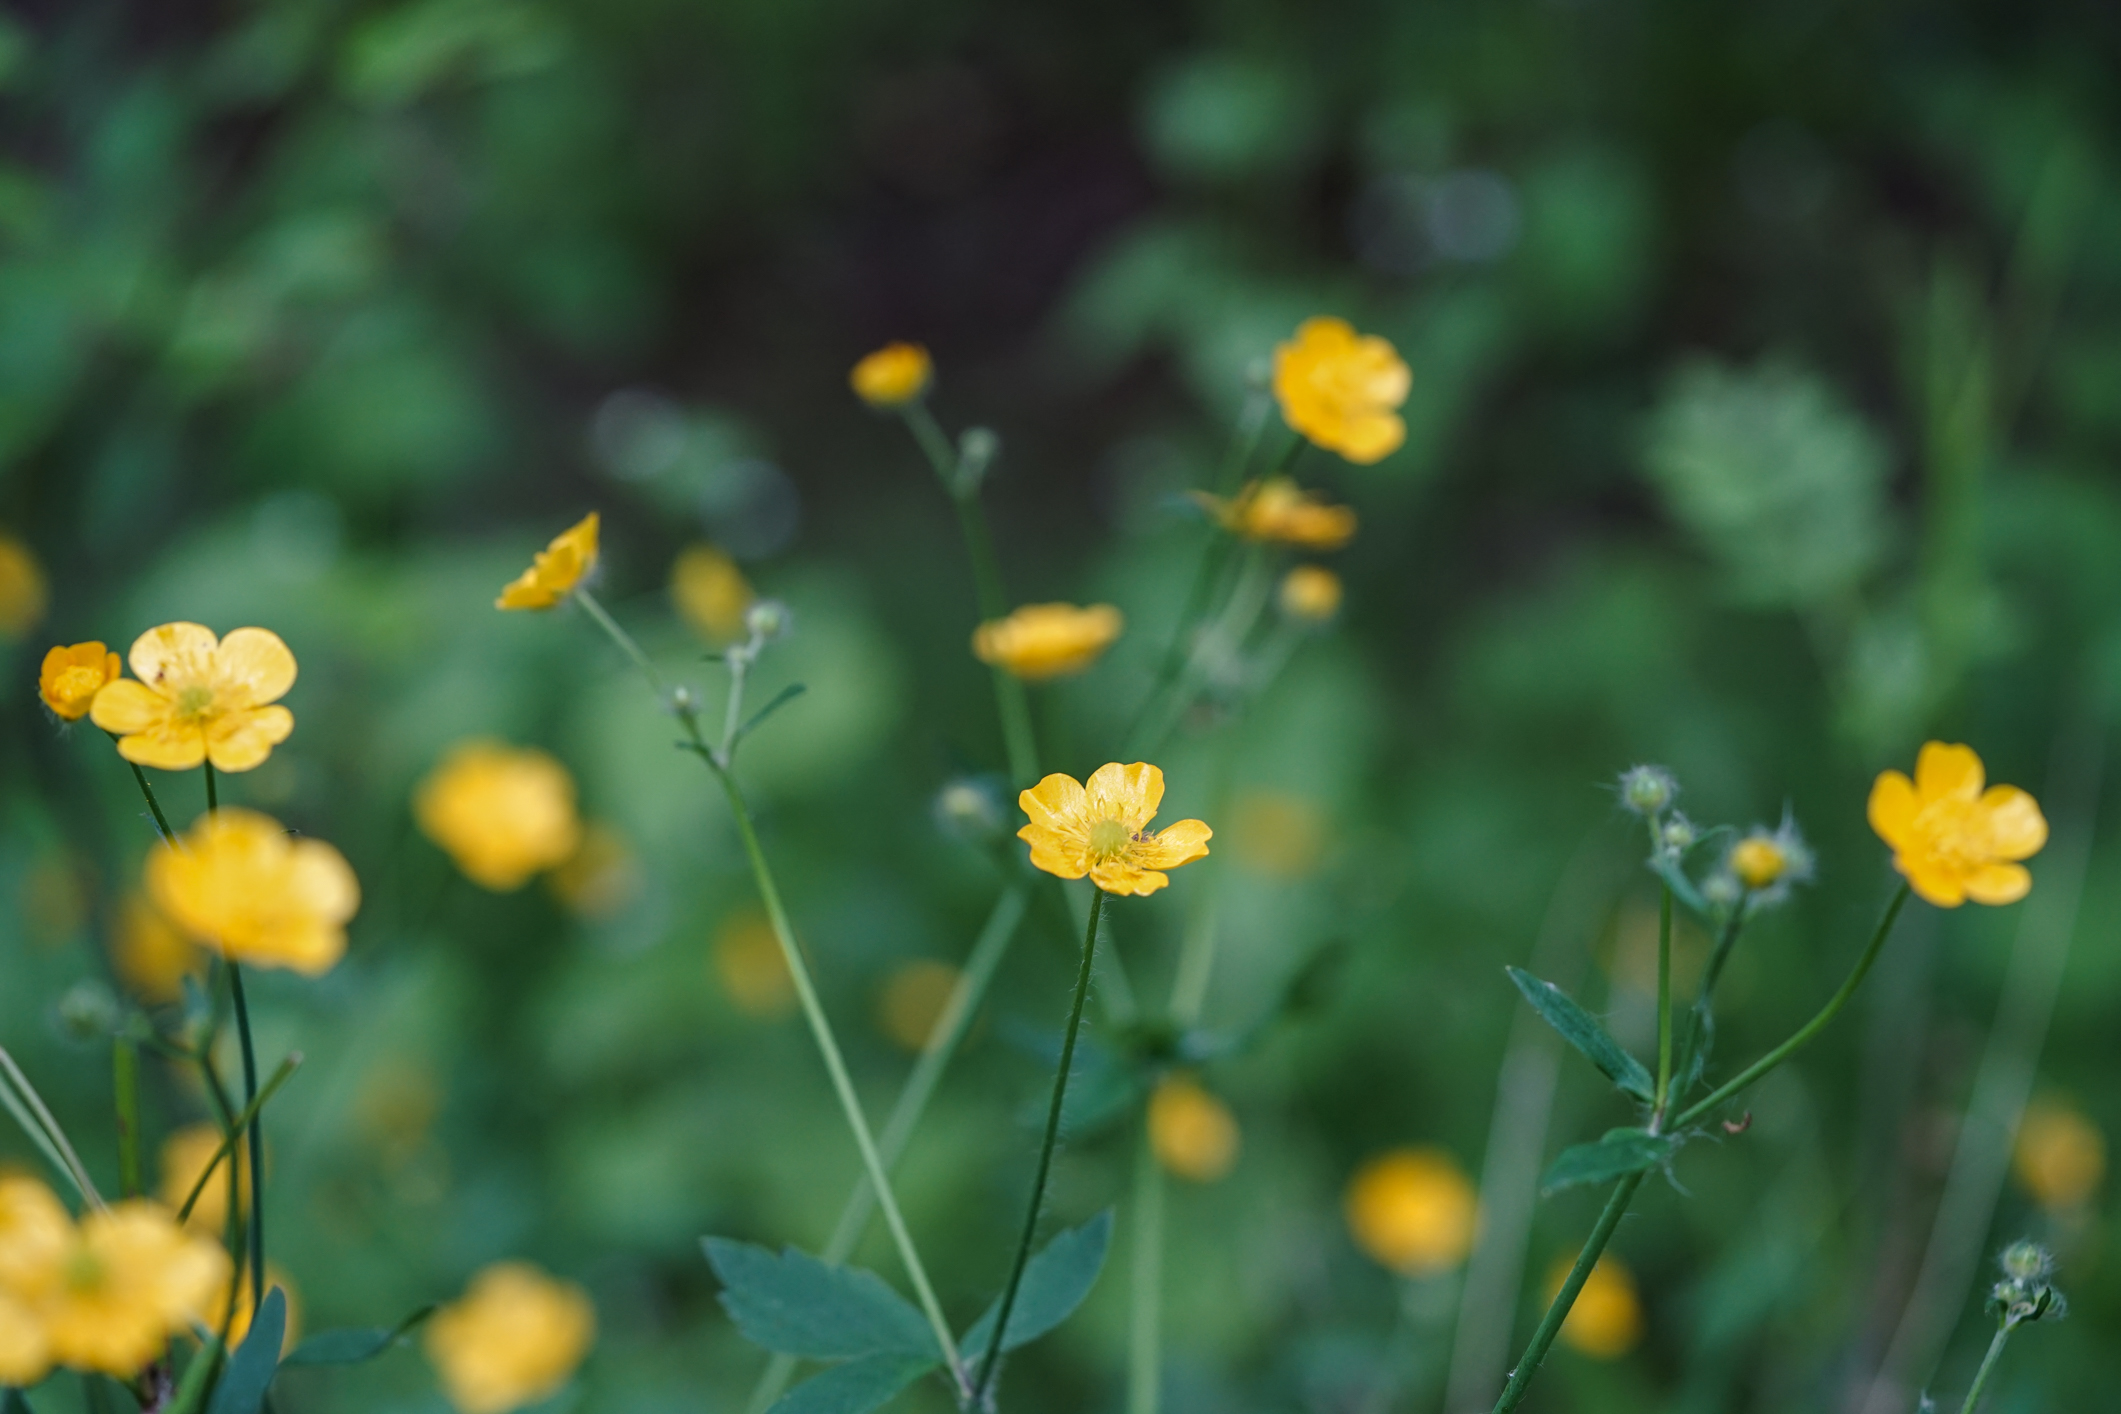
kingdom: Plantae
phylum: Tracheophyta
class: Magnoliopsida
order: Ranunculales
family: Ranunculaceae
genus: Ranunculus
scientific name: Ranunculus lanuginosus
